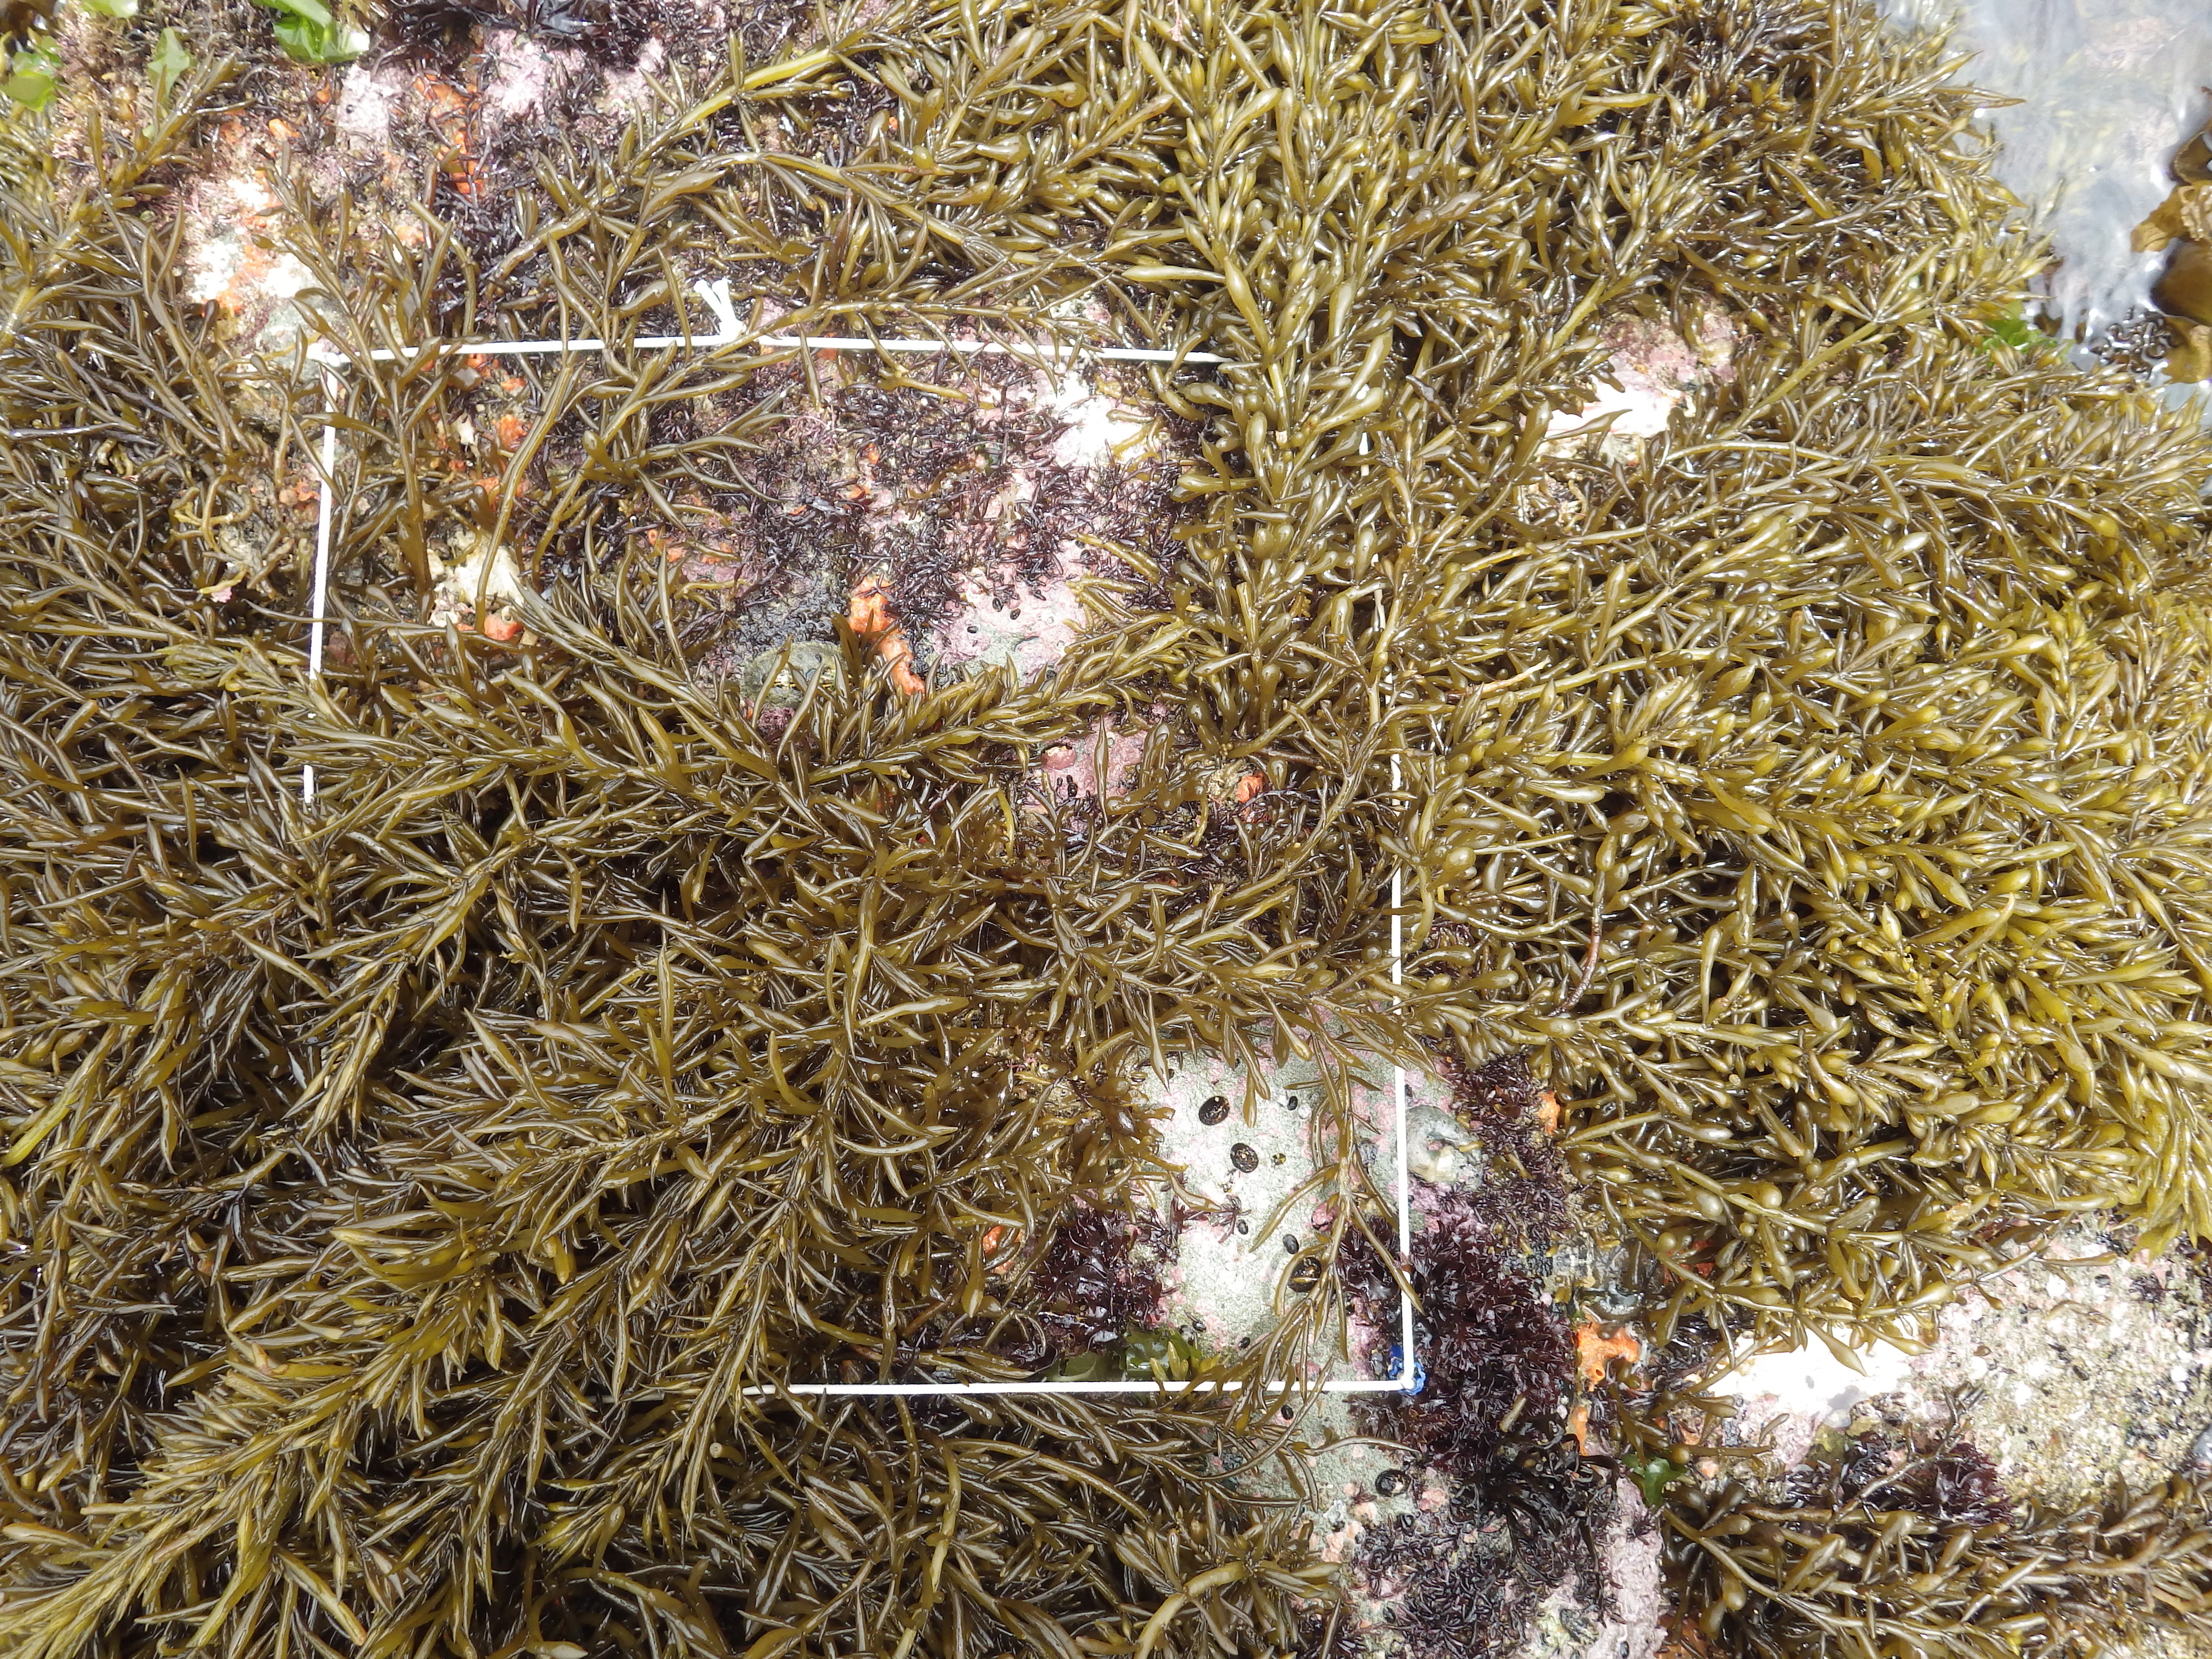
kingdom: Chromista
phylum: Ochrophyta
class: Phaeophyceae
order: Fucales
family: Sargassaceae
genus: Sargassum
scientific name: Sargassum fusiforme
